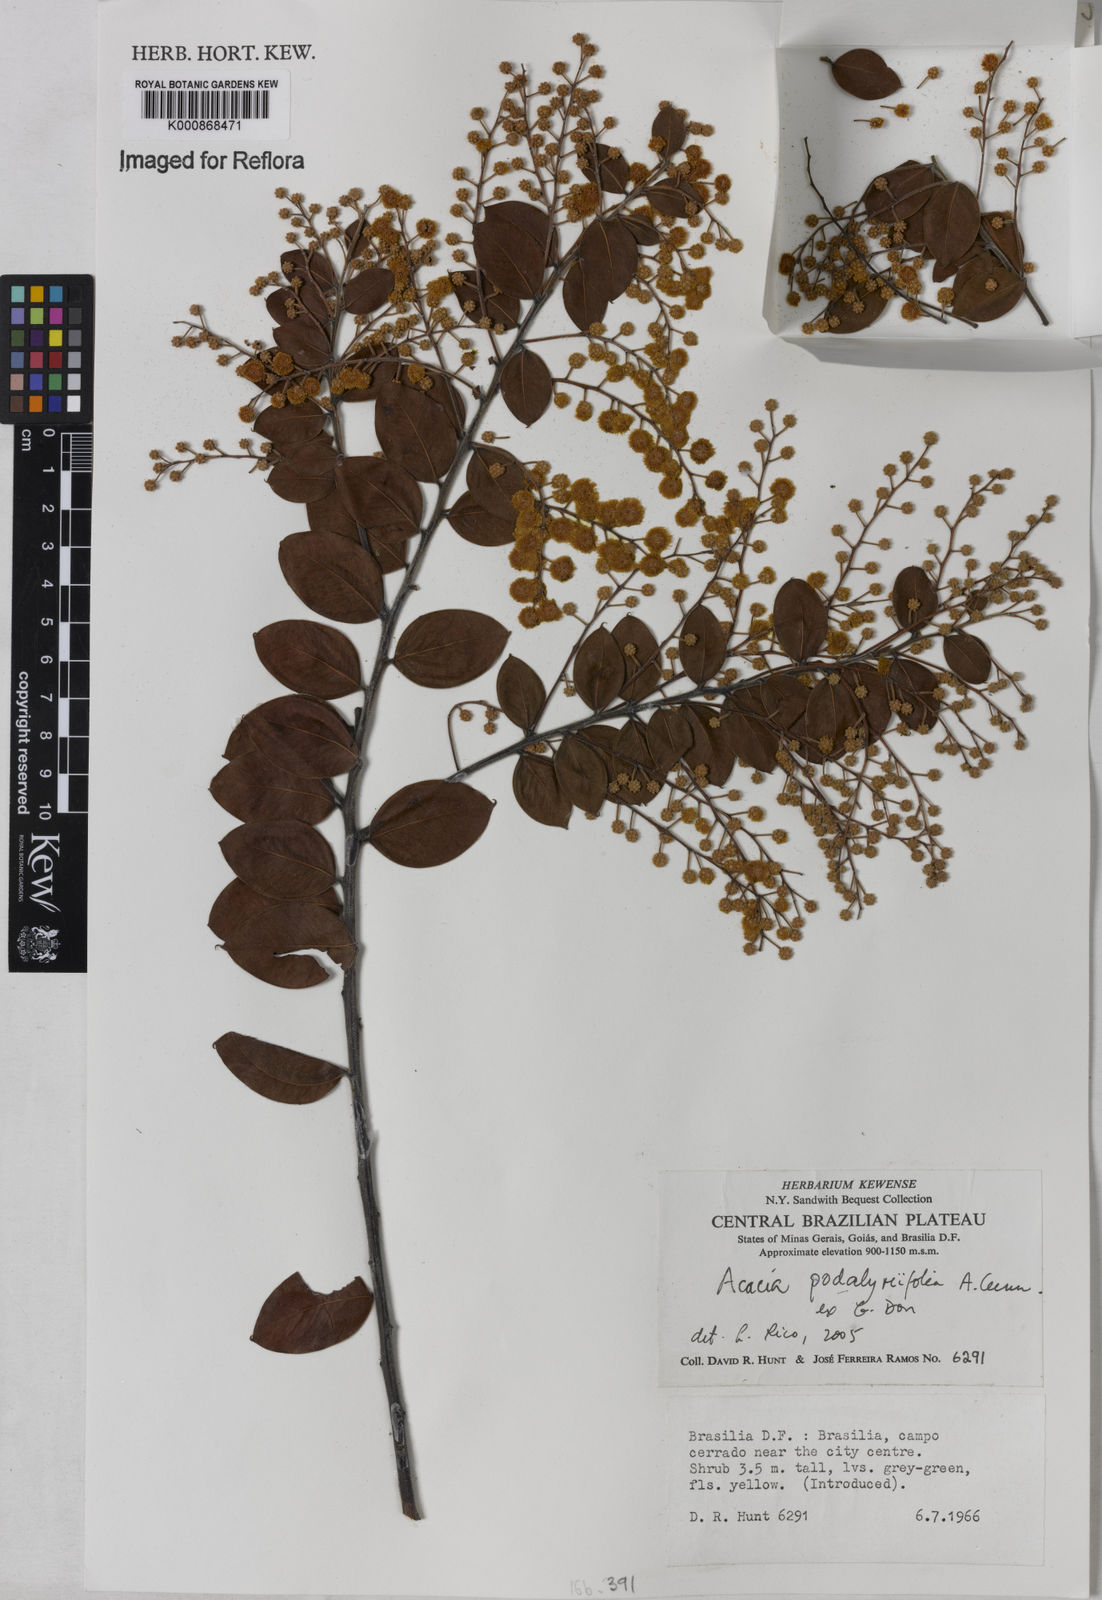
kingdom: Plantae
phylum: Tracheophyta
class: Magnoliopsida
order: Fabales
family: Fabaceae
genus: Acacia
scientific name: Acacia podalyriifolia
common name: Pearl wattle
